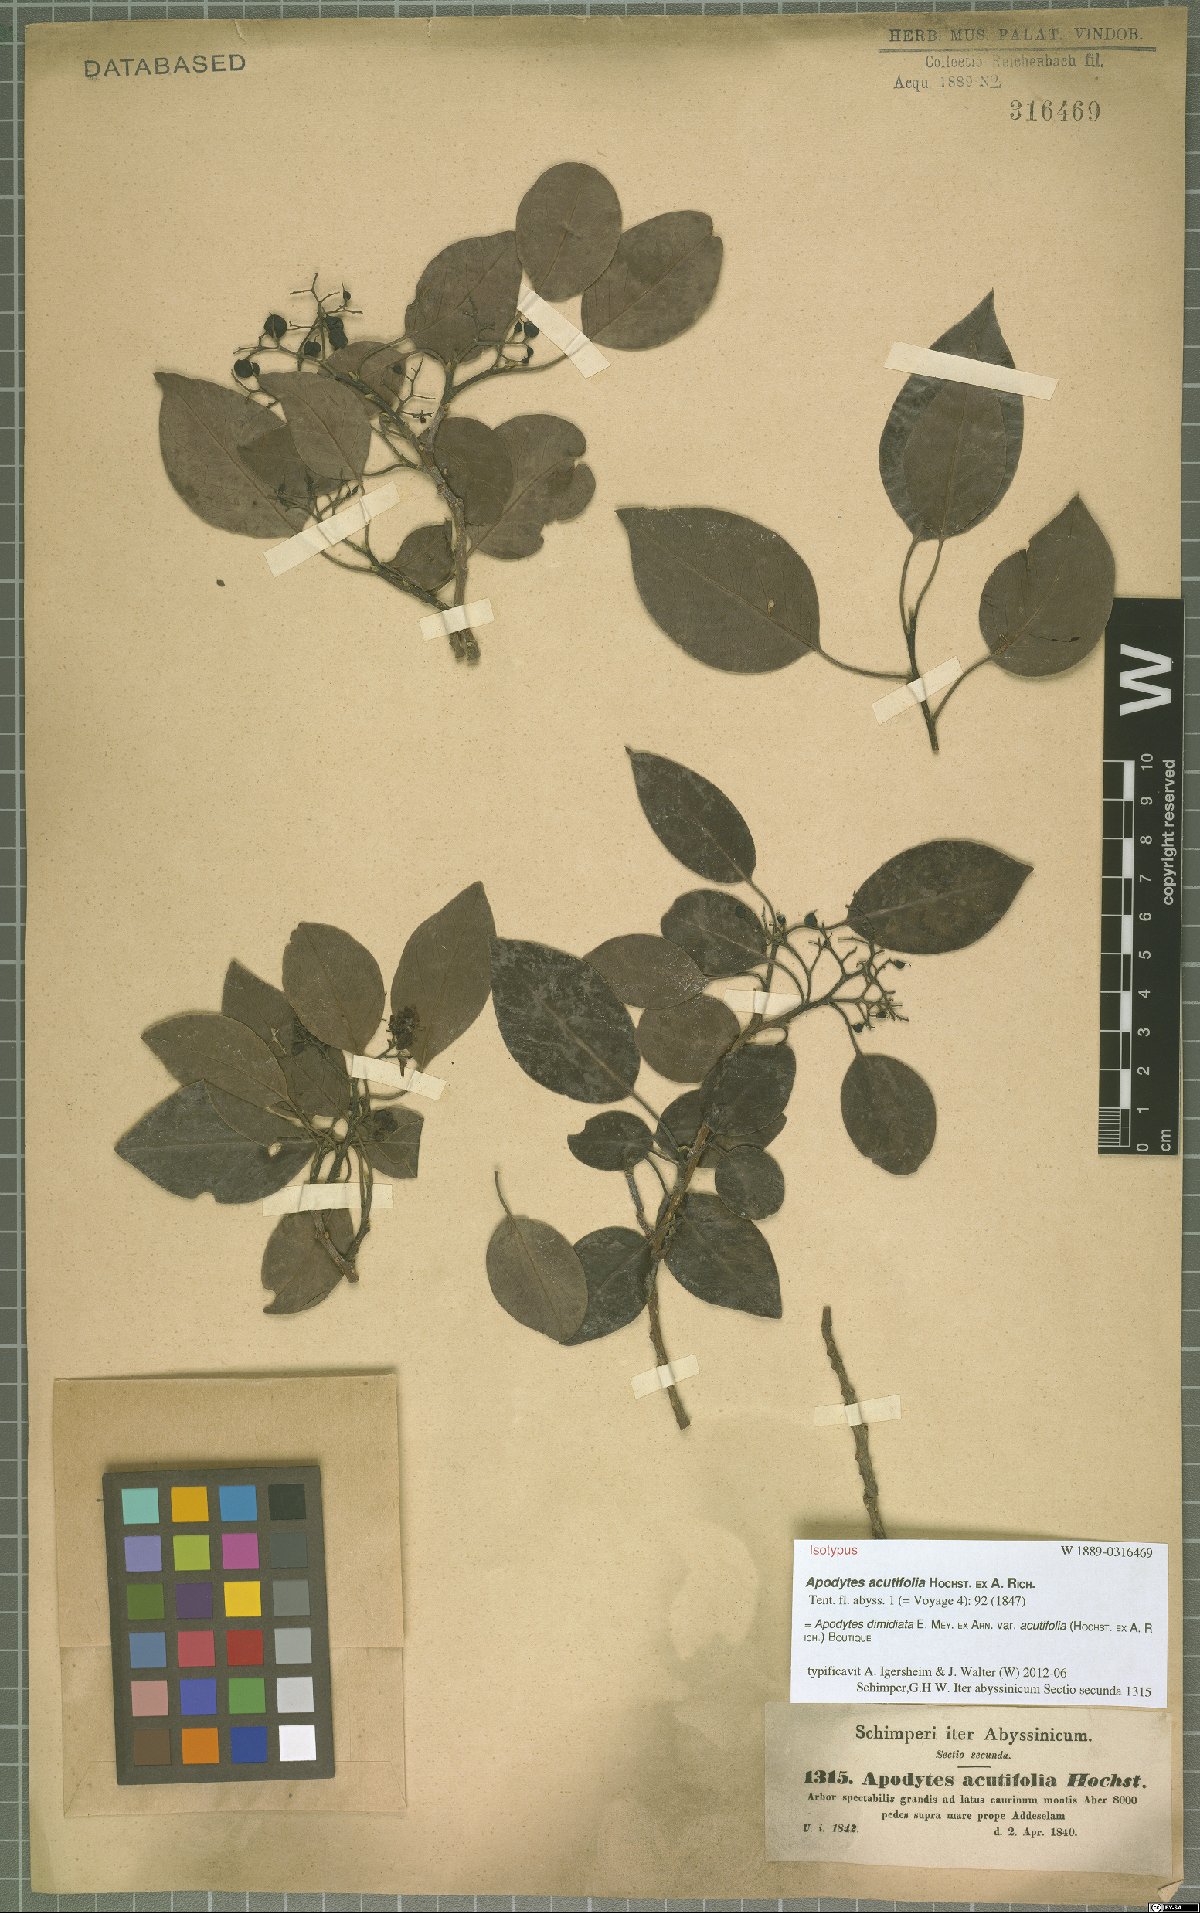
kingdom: Plantae
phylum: Tracheophyta
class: Magnoliopsida
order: Metteniusales
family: Metteniusaceae
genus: Apodytes
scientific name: Apodytes dimidiata
